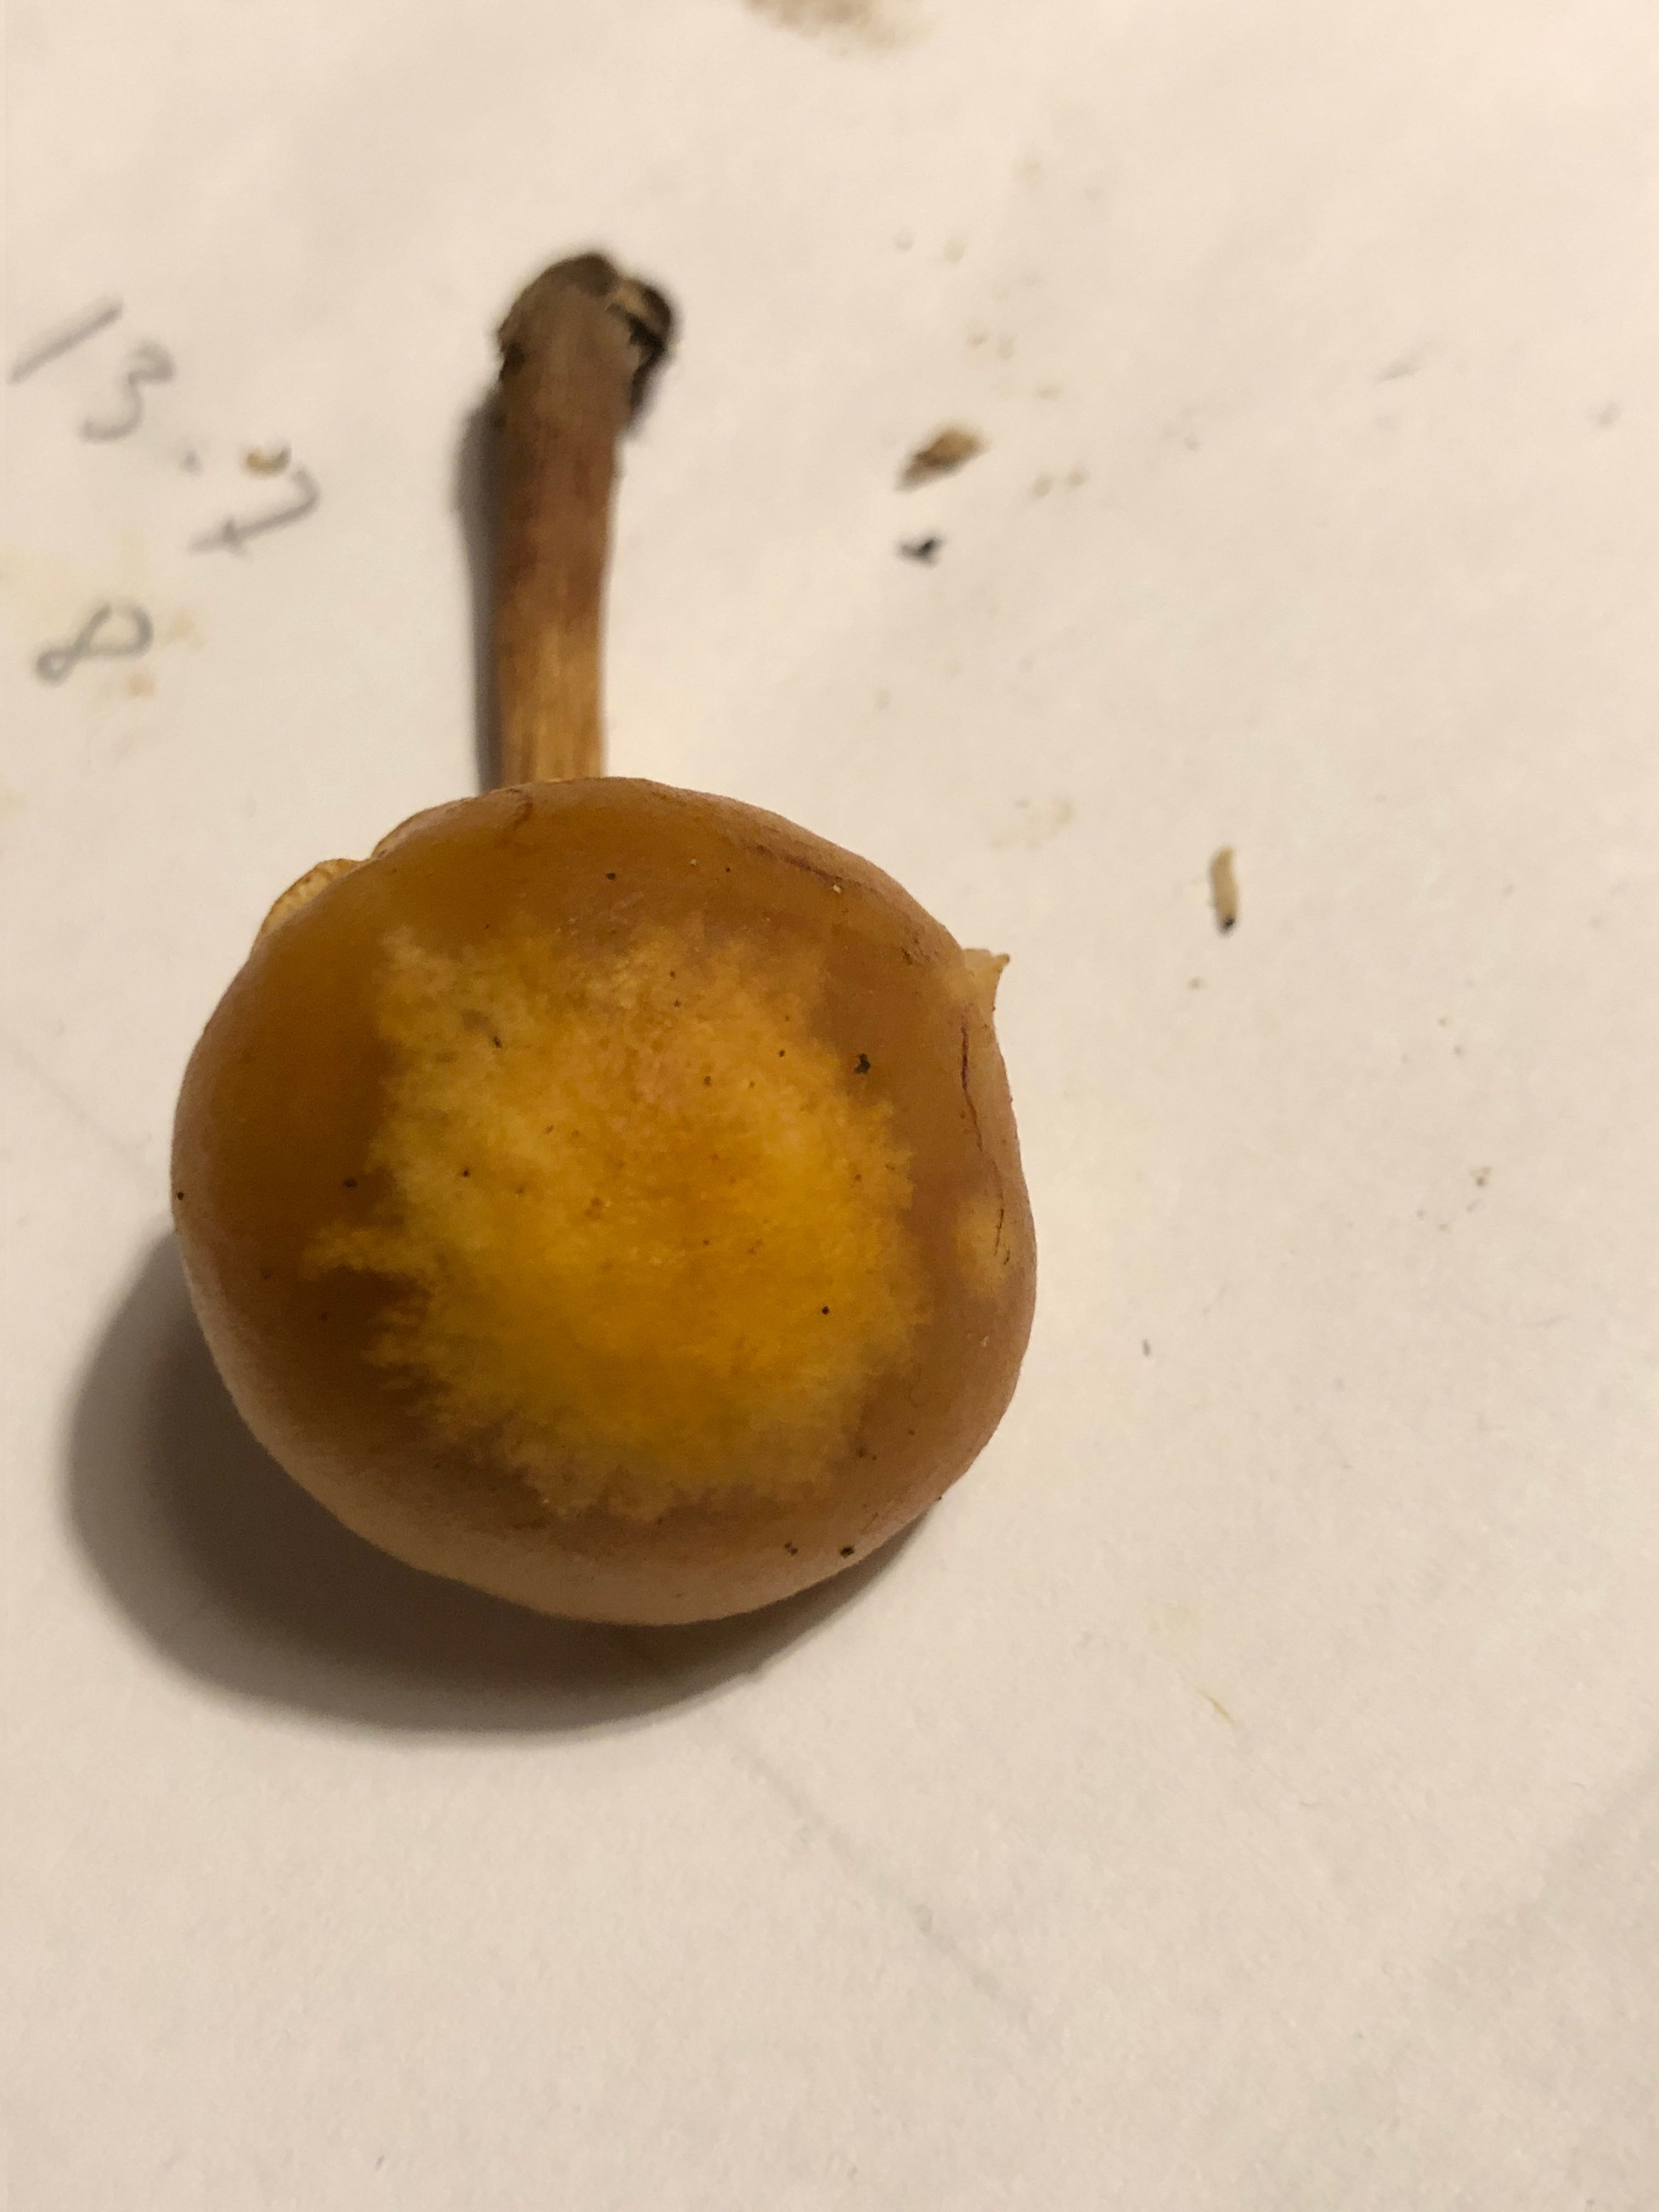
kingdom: Fungi
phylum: Basidiomycota
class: Agaricomycetes
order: Agaricales
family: Hymenogastraceae
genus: Galerina
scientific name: Galerina marginata
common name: randbæltet hjelmhat
